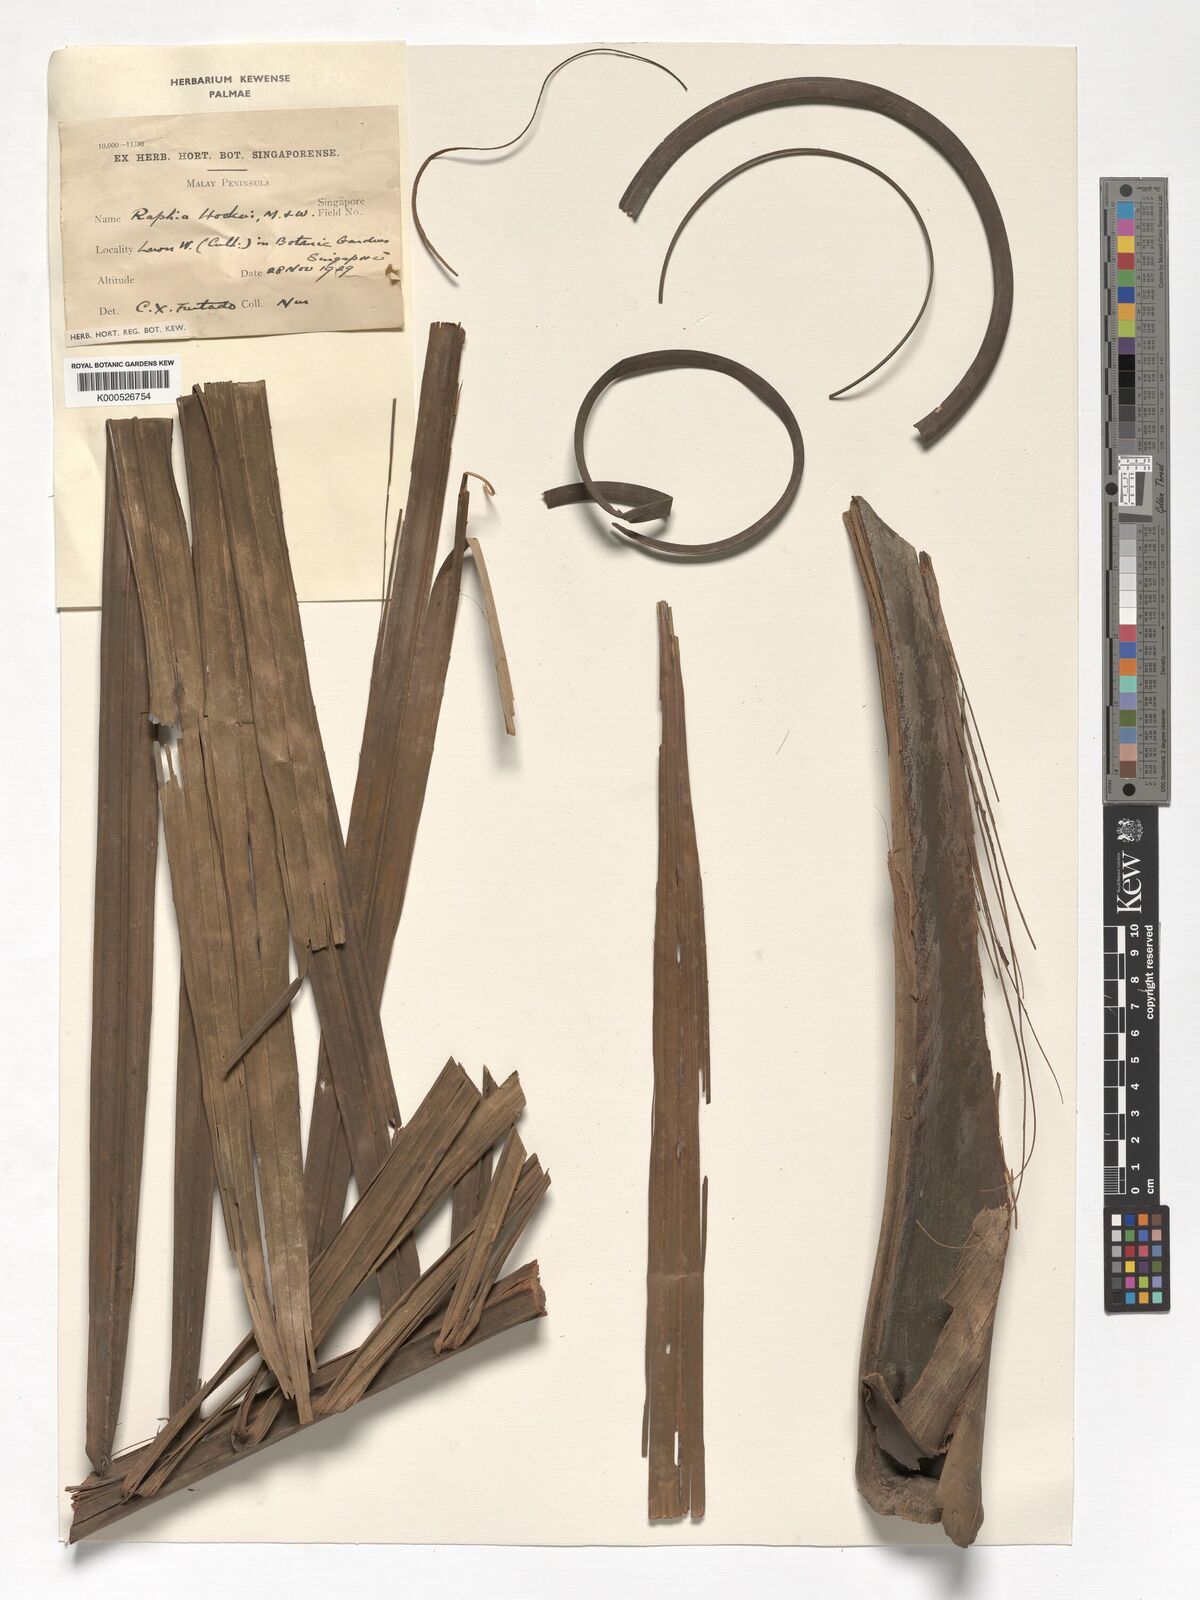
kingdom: Plantae
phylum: Tracheophyta
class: Liliopsida
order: Arecales
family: Arecaceae
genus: Raphia
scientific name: Raphia hookeri
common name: Wine palm
